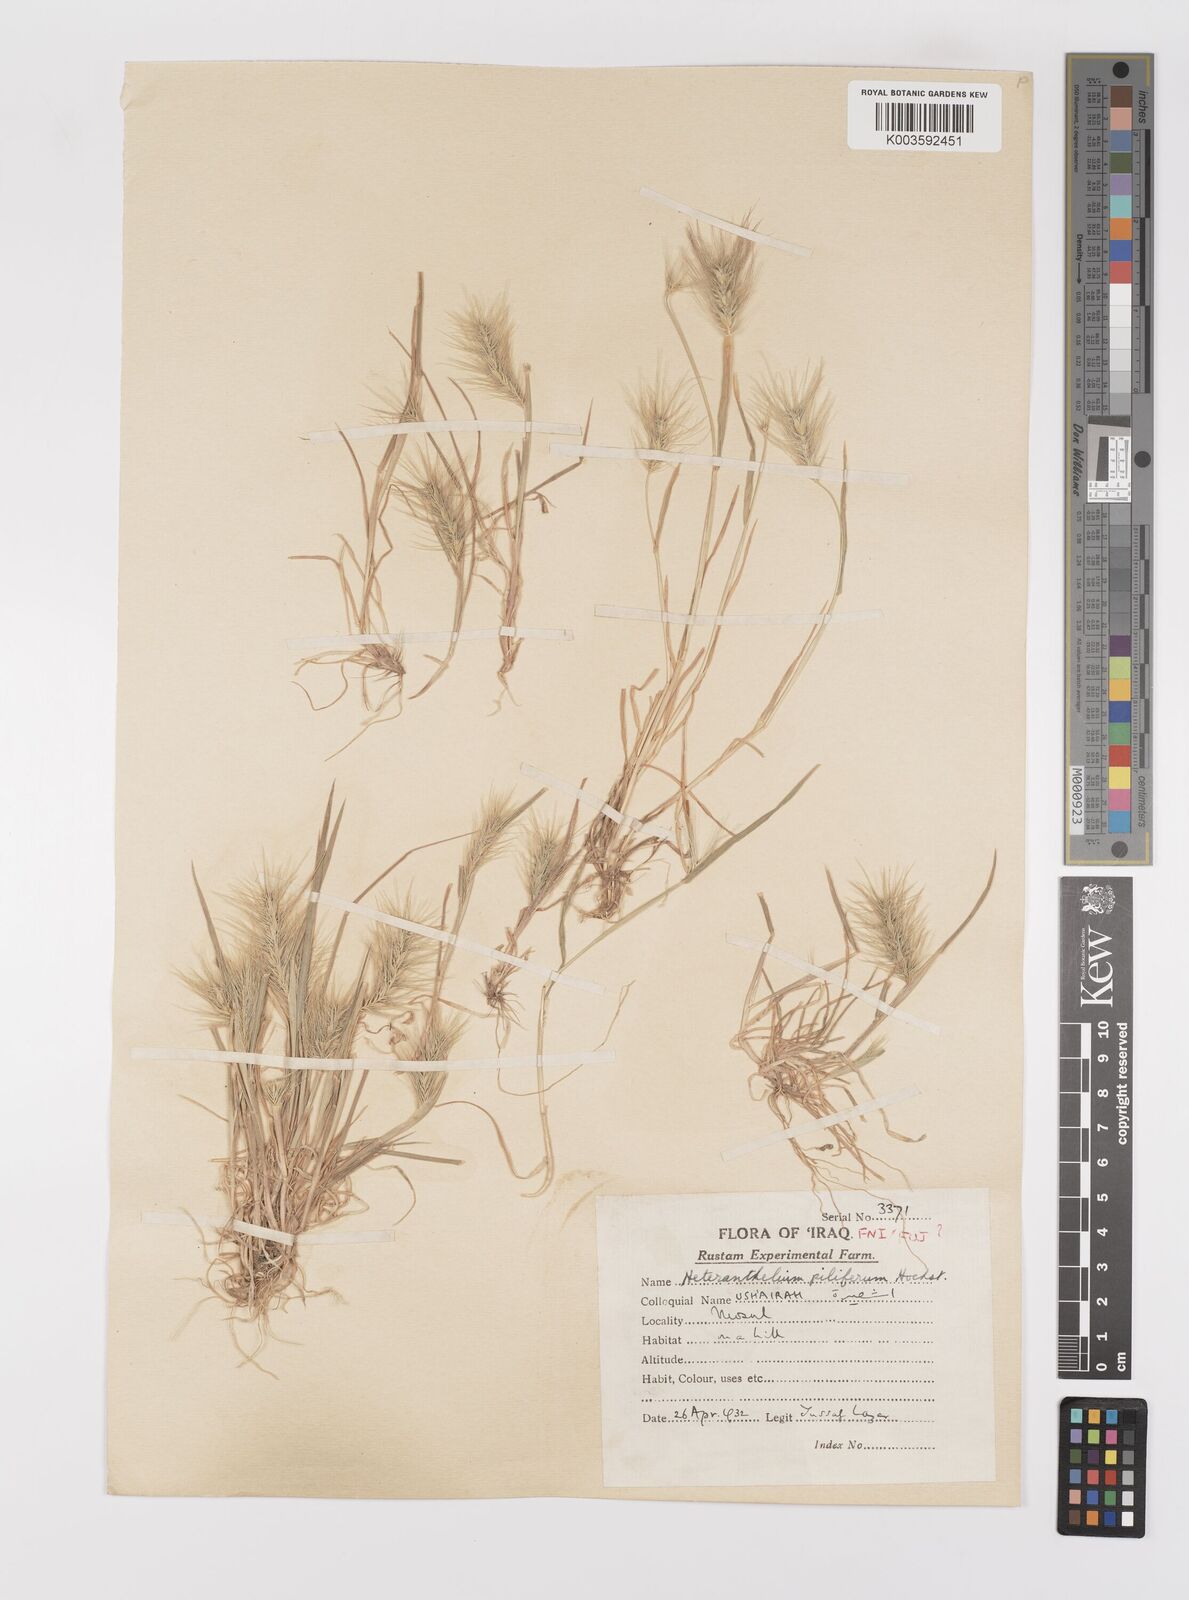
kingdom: Plantae
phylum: Tracheophyta
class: Liliopsida
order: Poales
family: Poaceae
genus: Heteranthelium
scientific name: Heteranthelium piliferum
